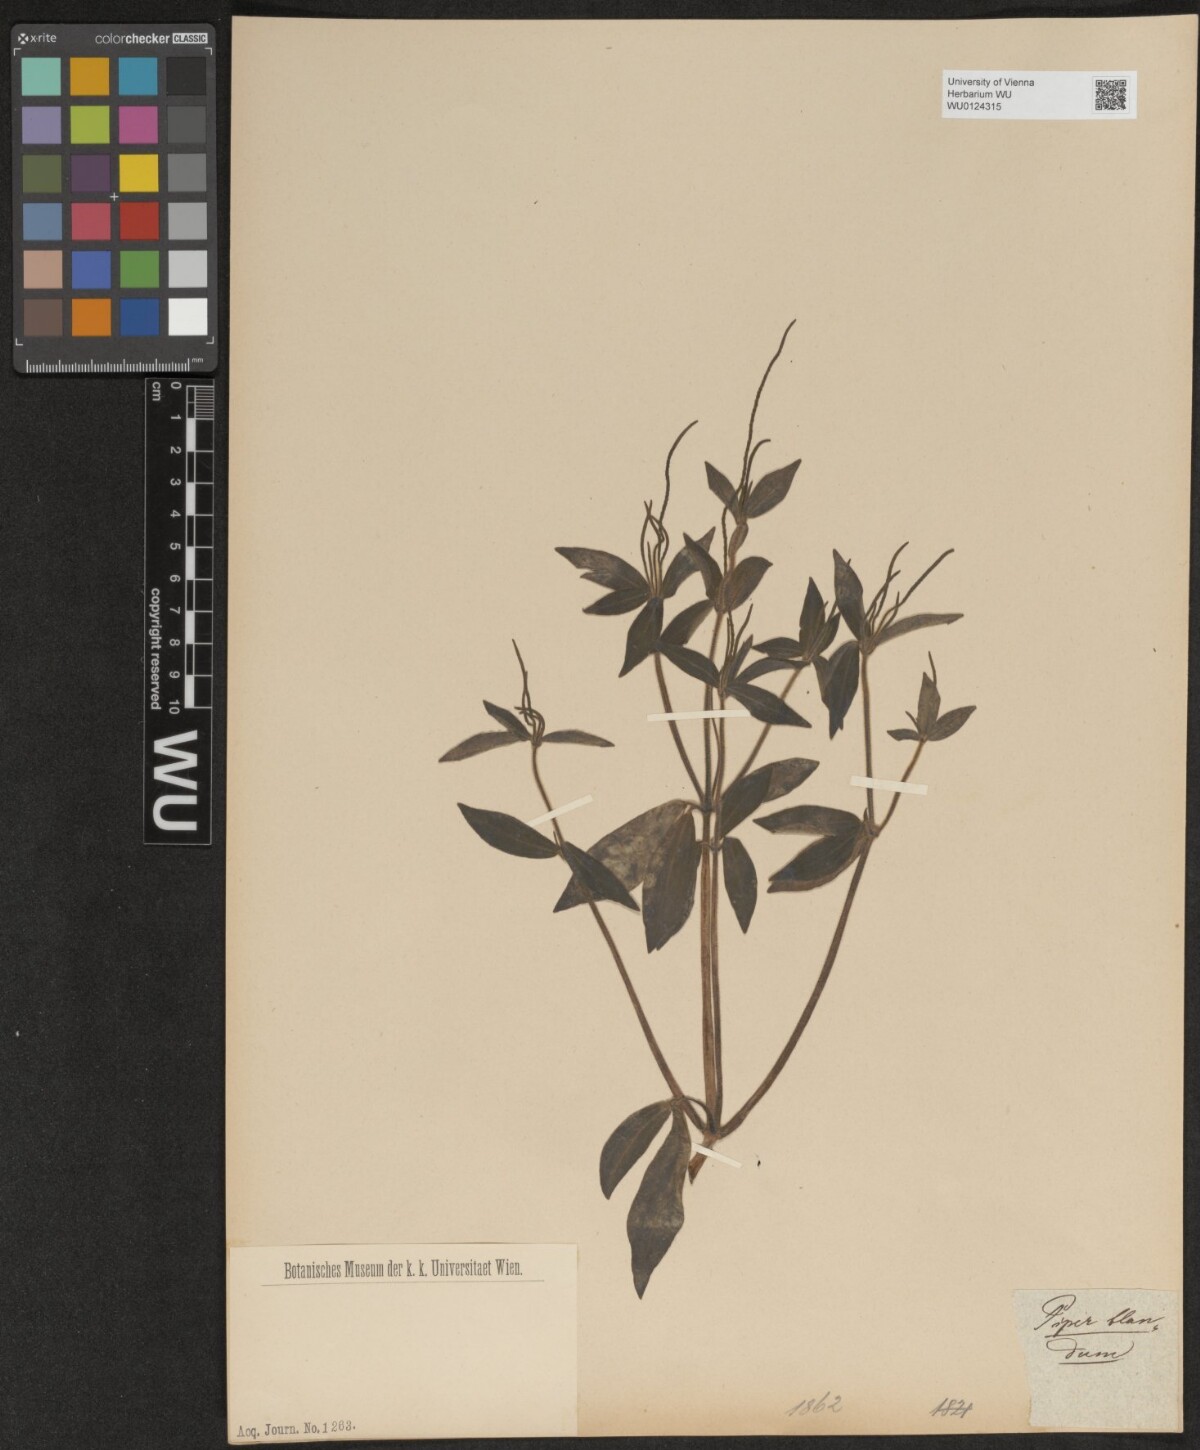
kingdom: Plantae
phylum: Tracheophyta
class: Magnoliopsida
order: Piperales
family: Piperaceae
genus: Peperomia
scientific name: Peperomia blanda
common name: Arid-land peperomia
